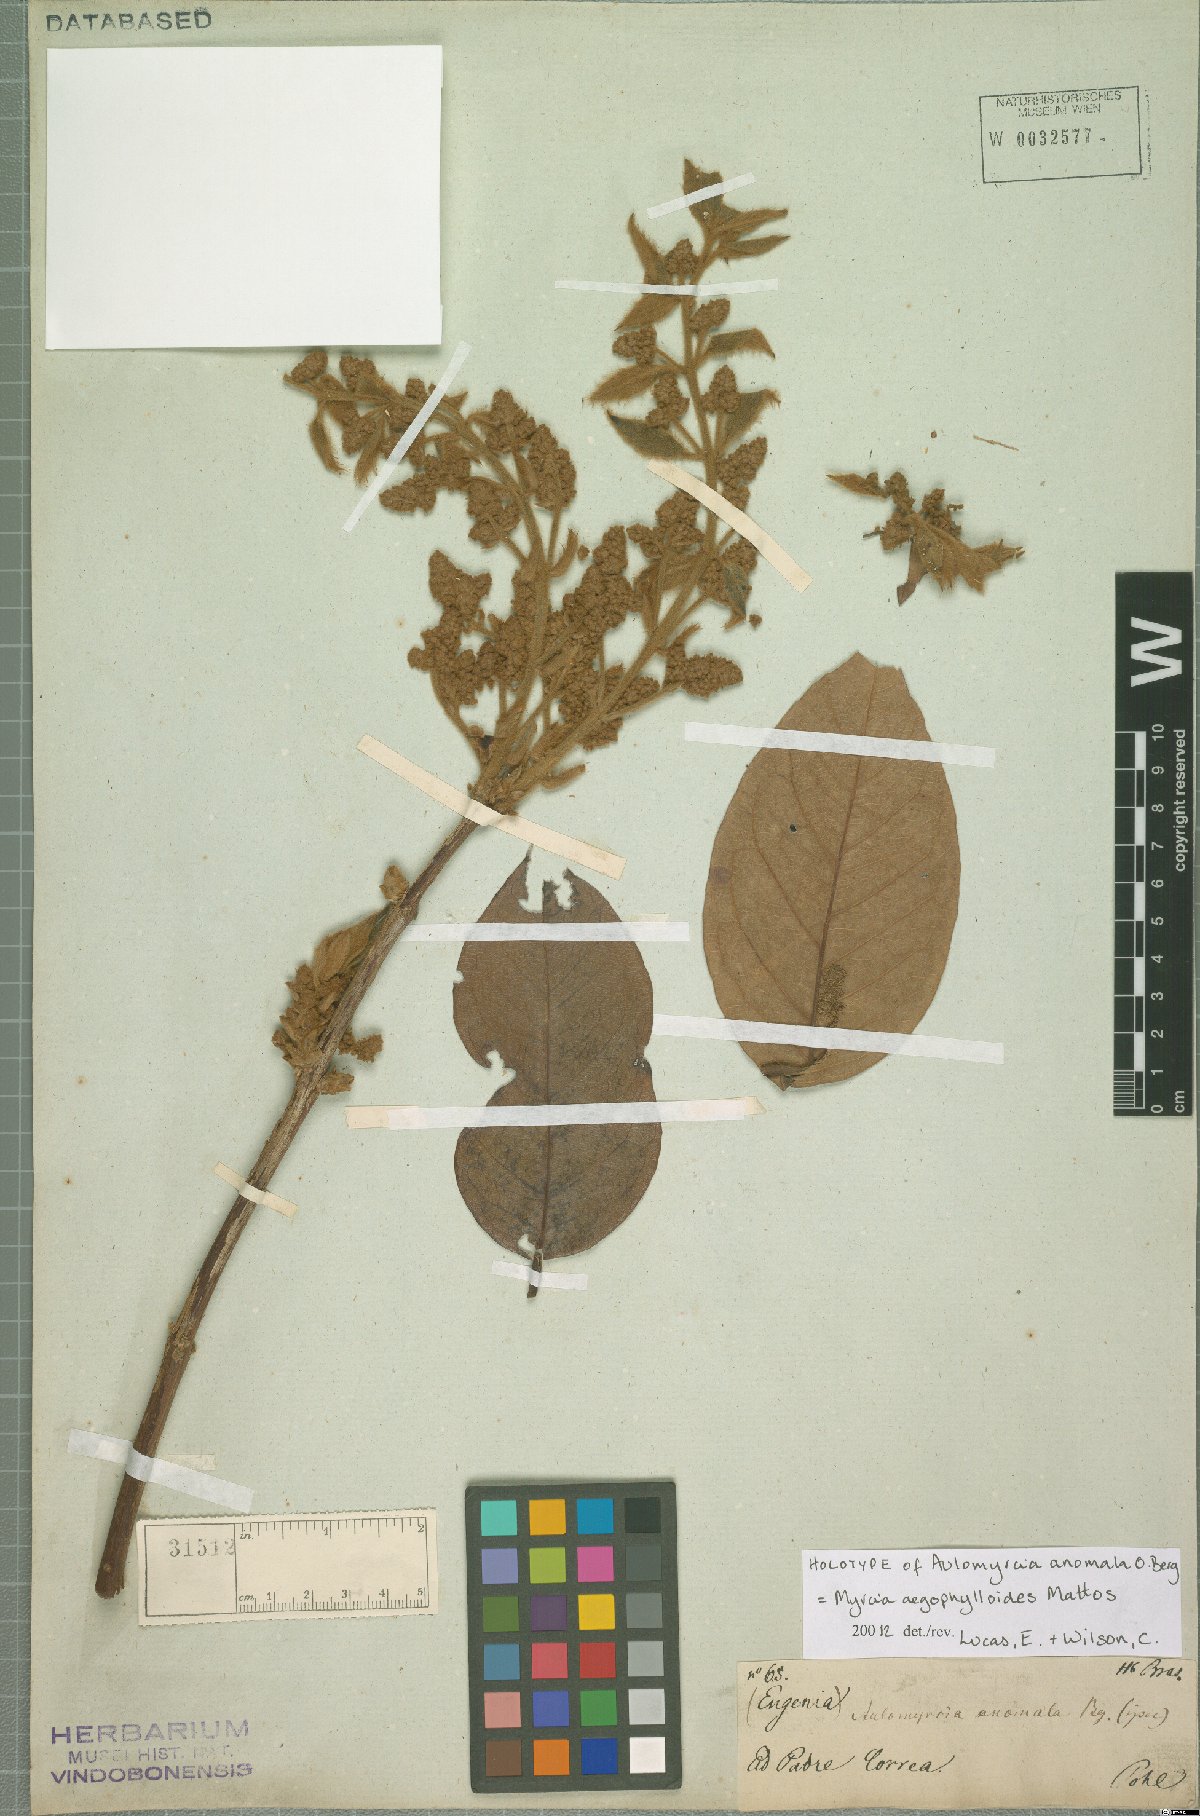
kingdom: Plantae
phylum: Tracheophyta
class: Magnoliopsida
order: Myrtales
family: Myrtaceae
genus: Myrcia
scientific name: Myrcia aegyphylloides
